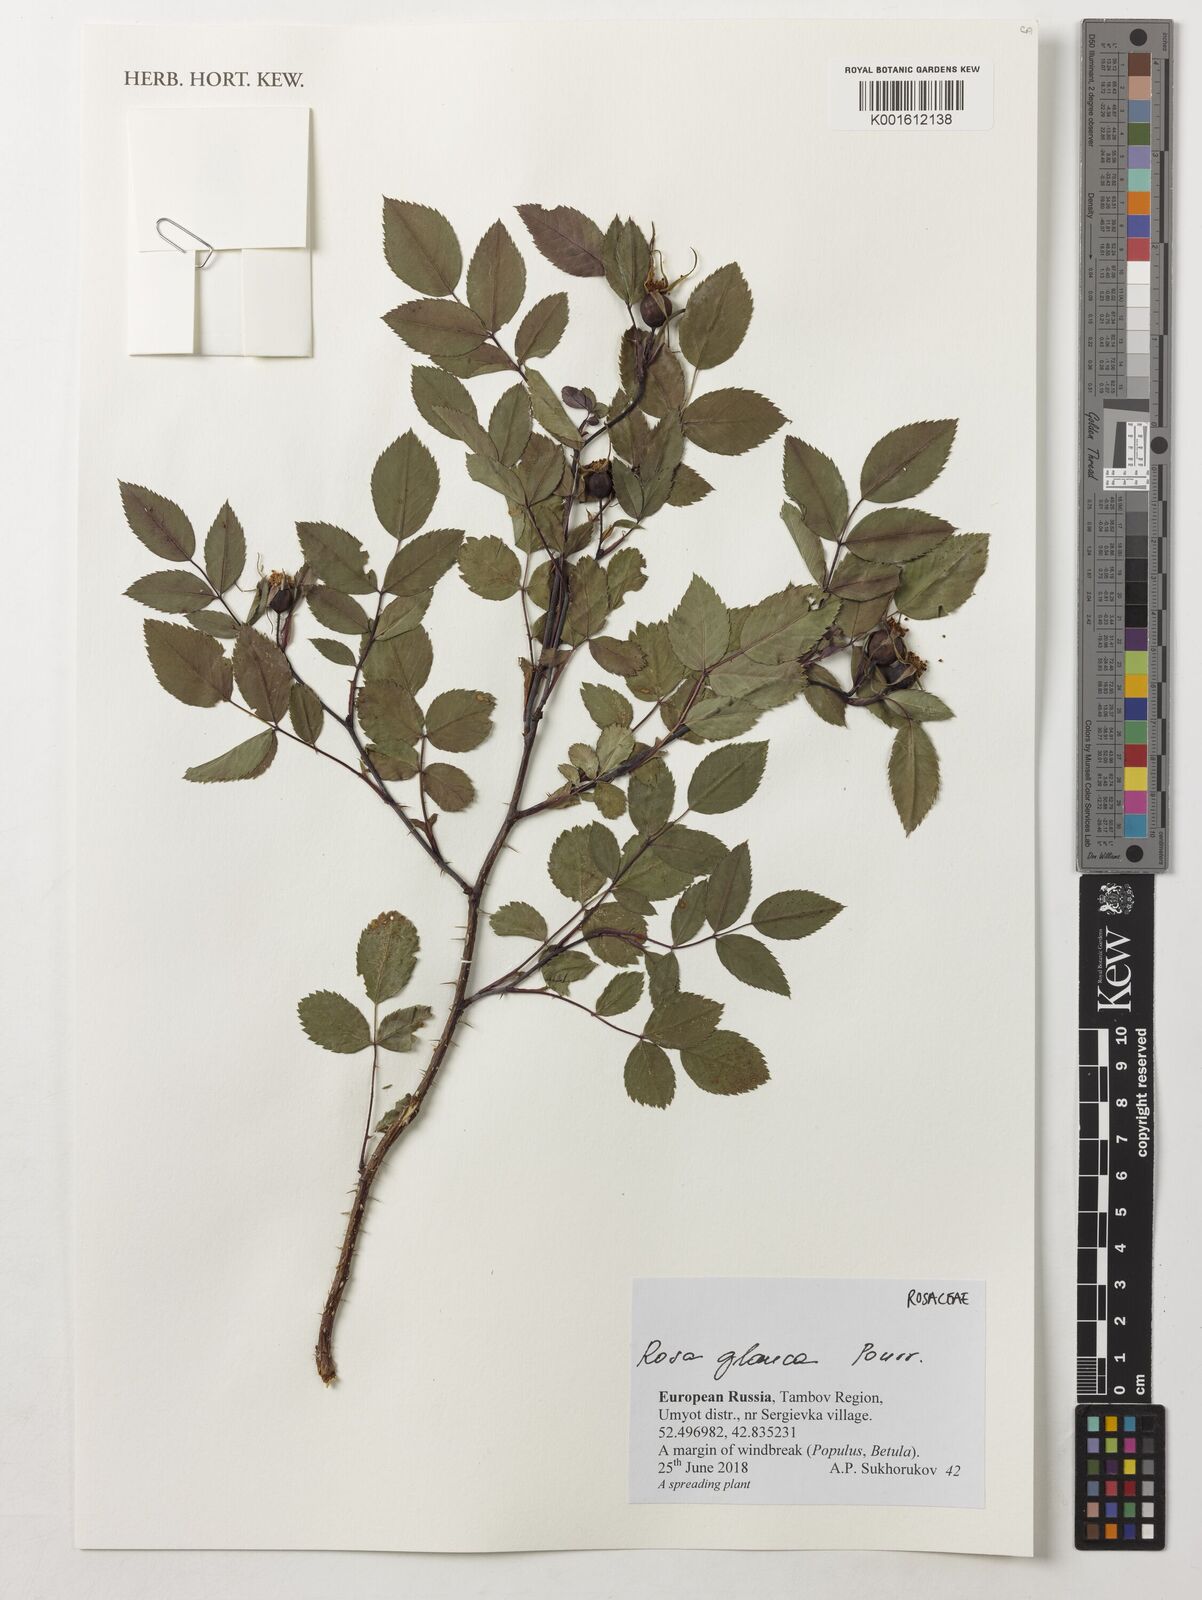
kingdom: Plantae
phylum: Tracheophyta
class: Magnoliopsida
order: Rosales
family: Rosaceae
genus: Rosa
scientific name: Rosa glauca
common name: Redleaf rose
